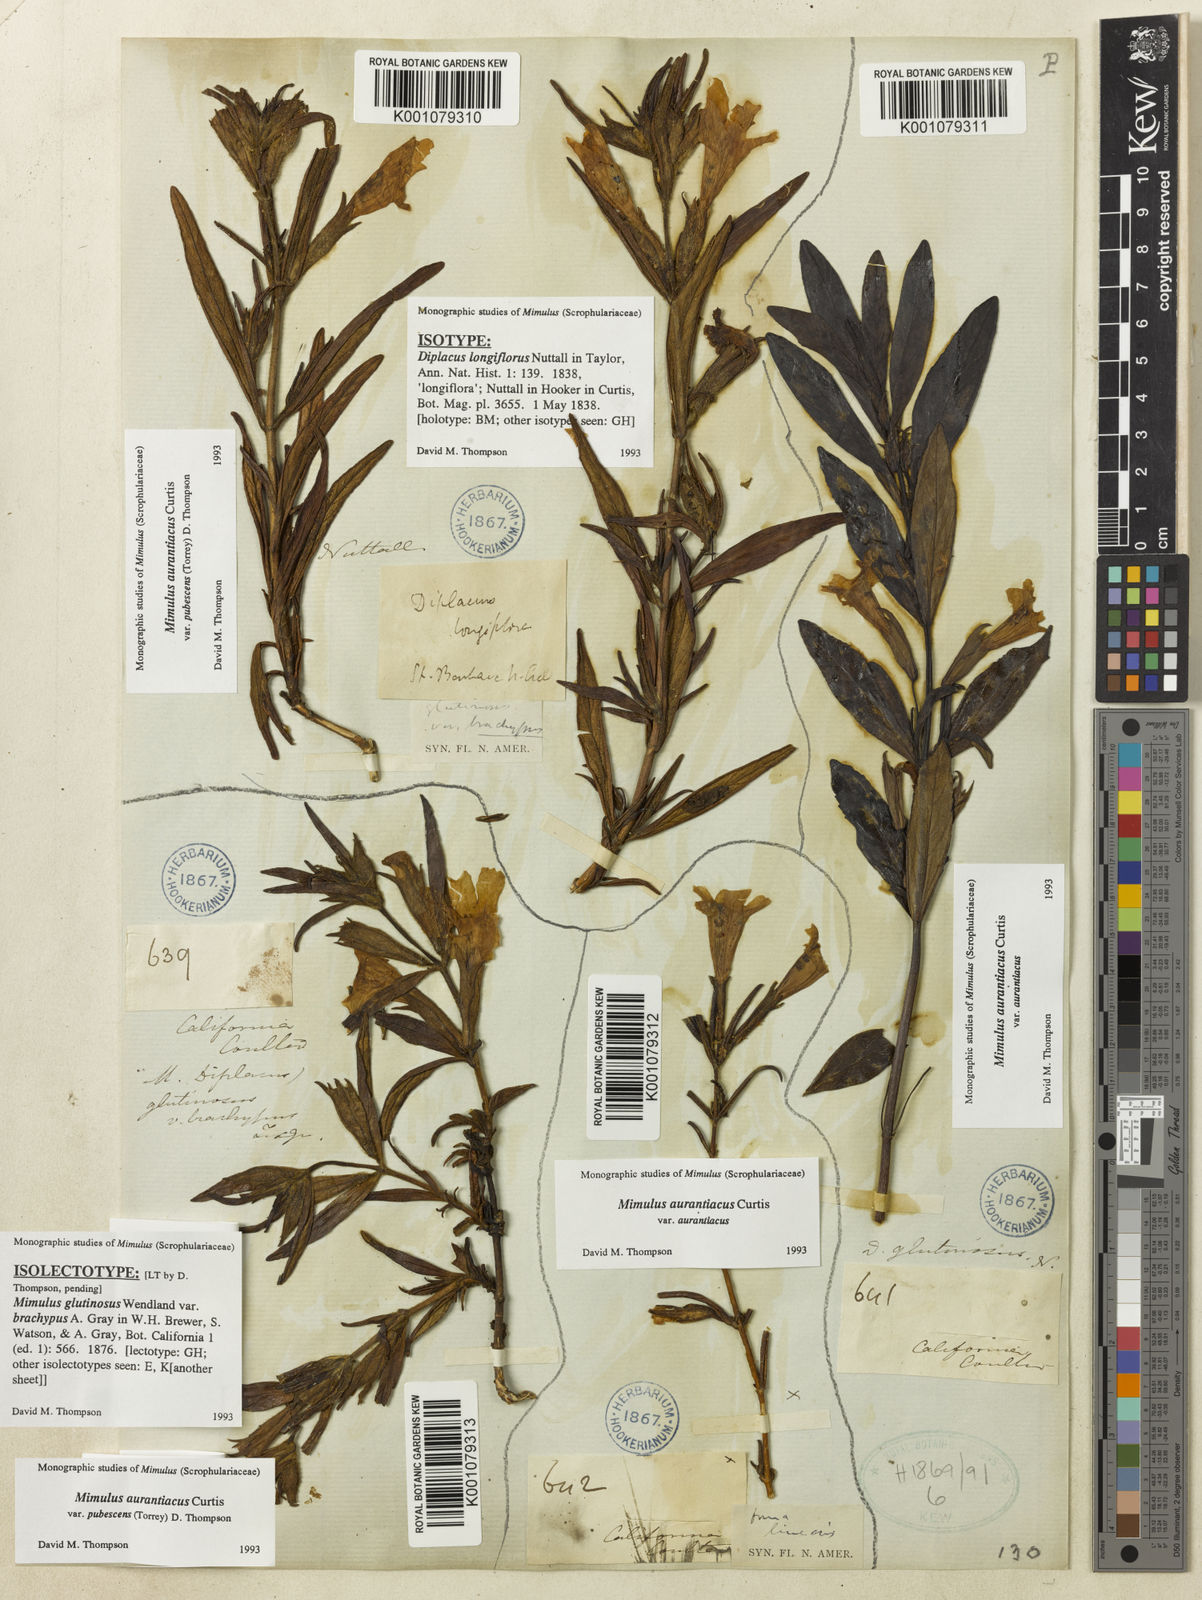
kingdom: Plantae
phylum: Tracheophyta
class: Magnoliopsida
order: Lamiales
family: Phrymaceae
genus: Diplacus
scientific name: Diplacus longiflorus
